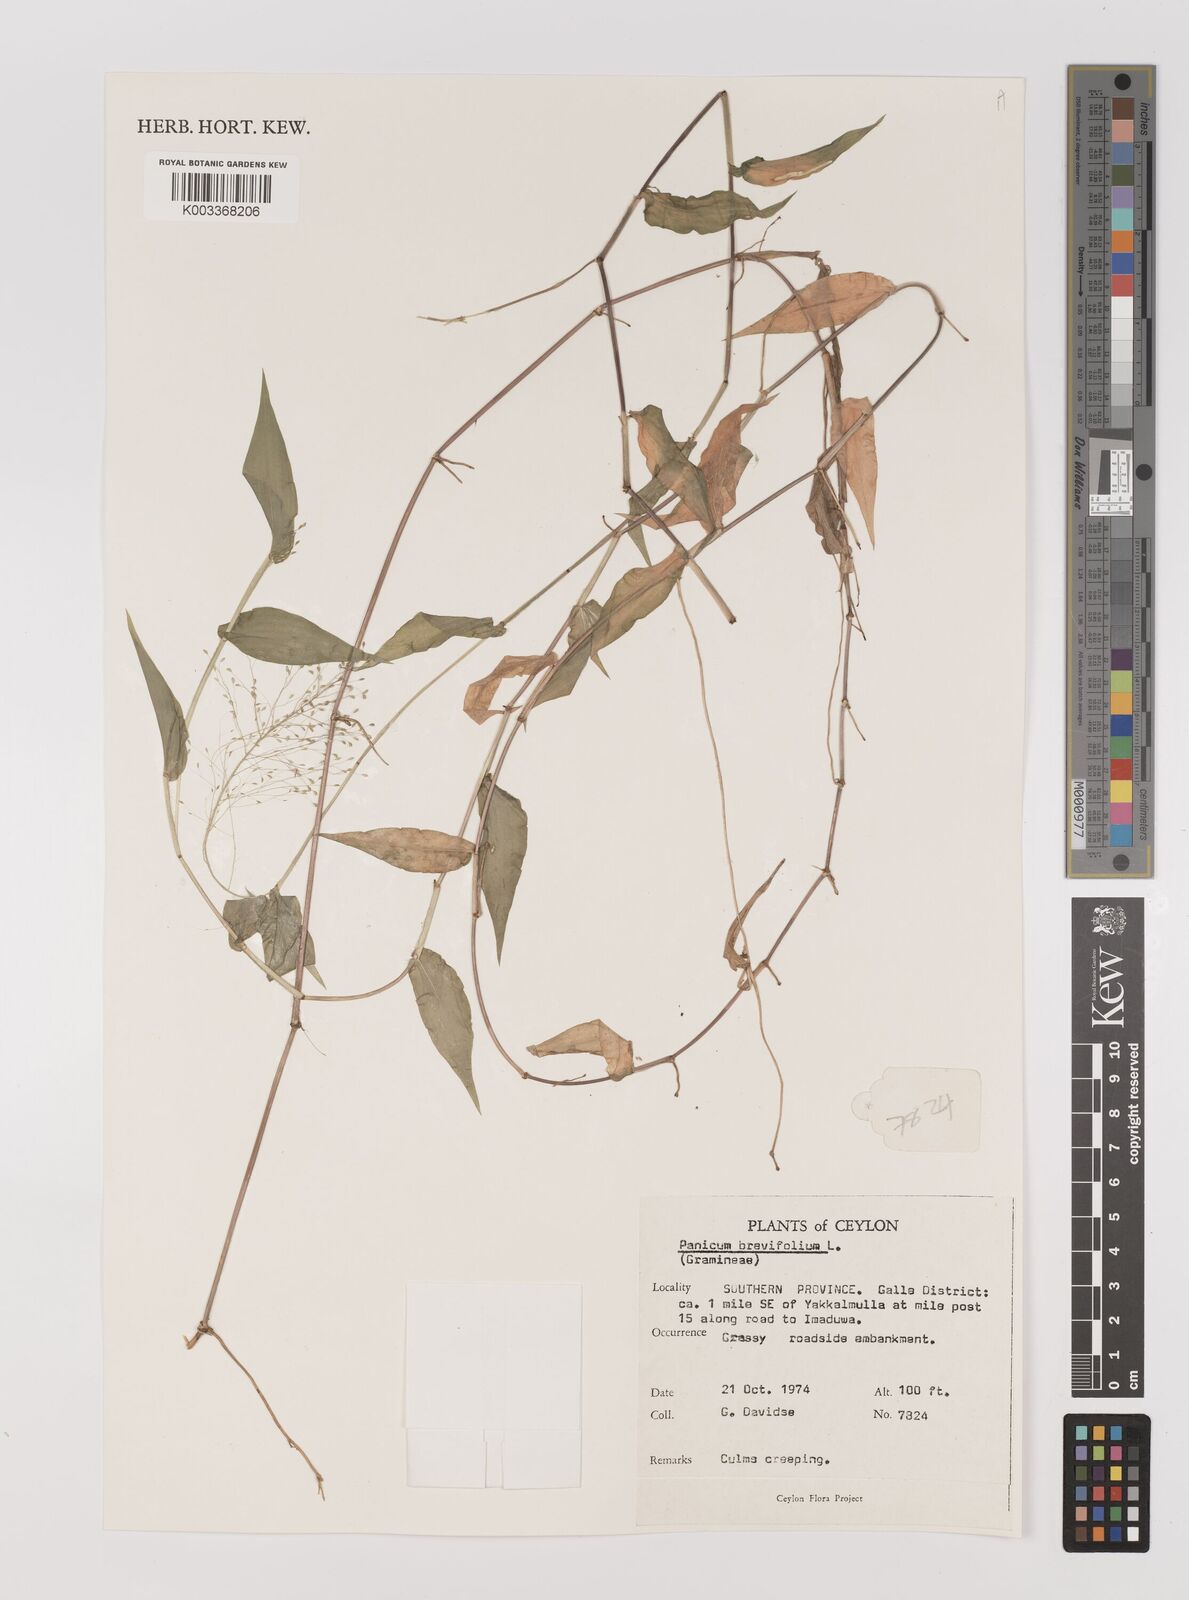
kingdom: Plantae
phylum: Tracheophyta
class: Liliopsida
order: Poales
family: Poaceae
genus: Panicum
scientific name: Panicum brevifolium
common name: Shortleaf panic grass
